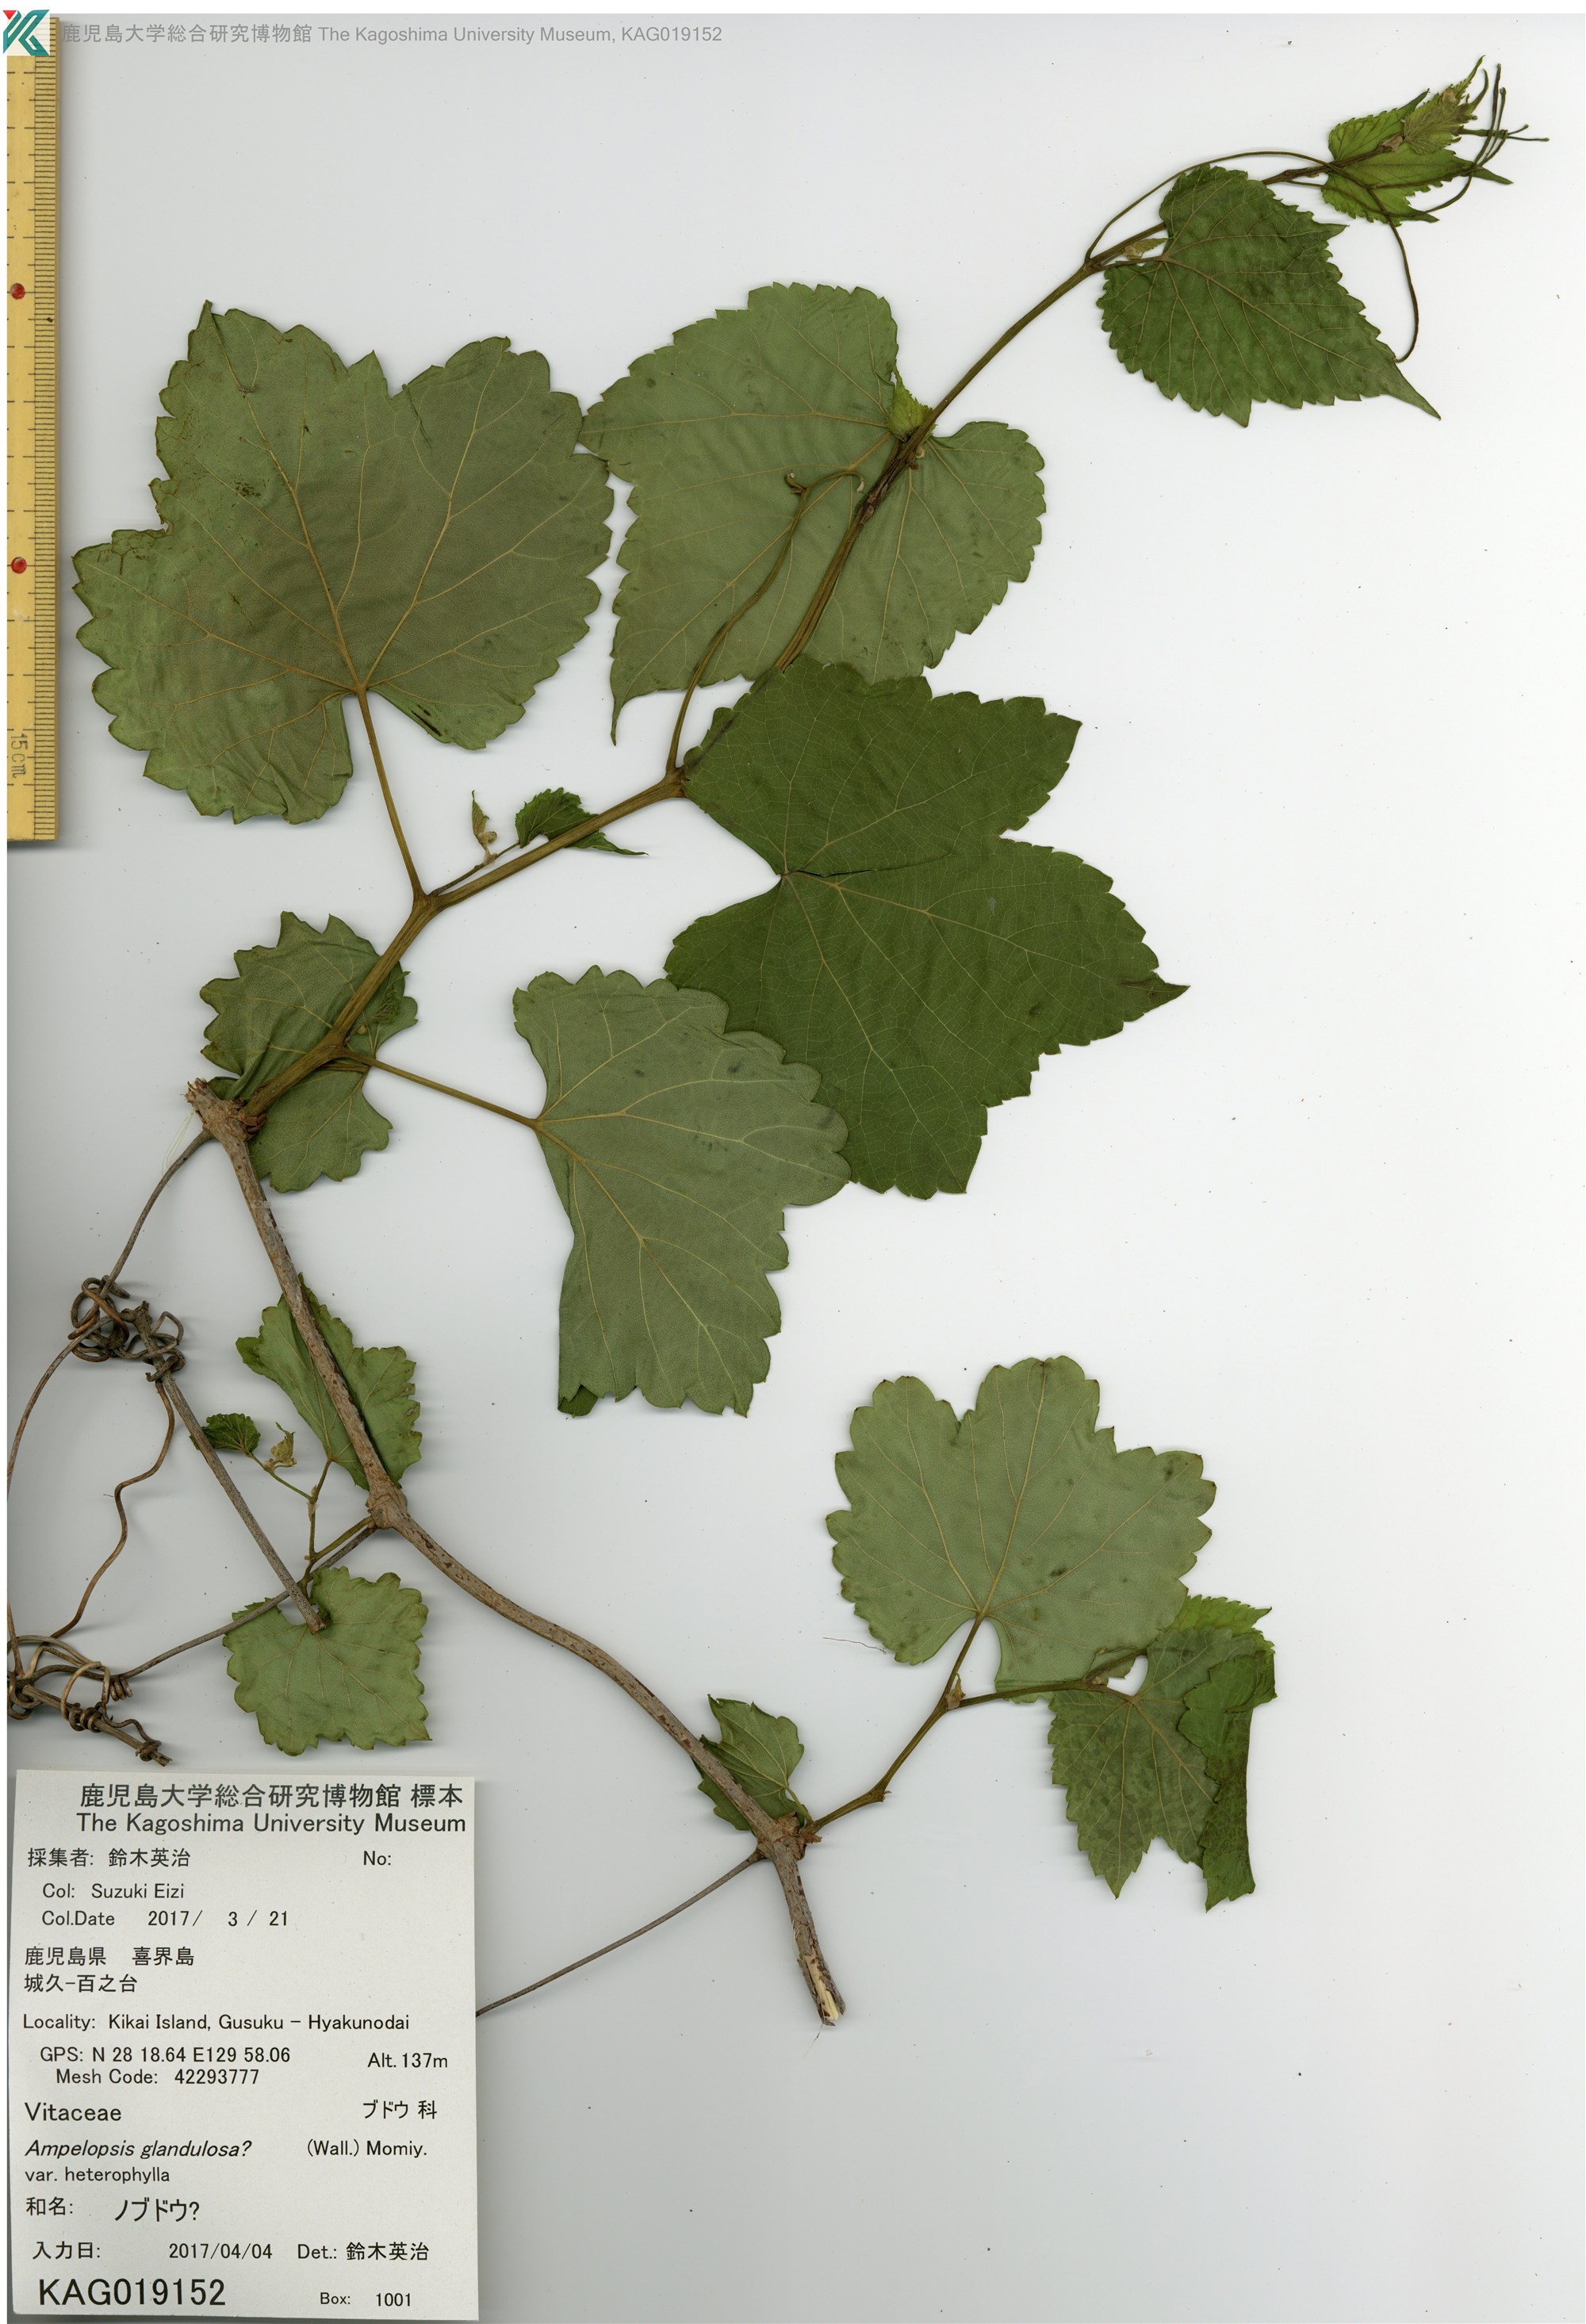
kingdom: Plantae
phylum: Tracheophyta
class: Magnoliopsida
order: Vitales
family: Vitaceae
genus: Ampelopsis
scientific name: Ampelopsis glandulosa
